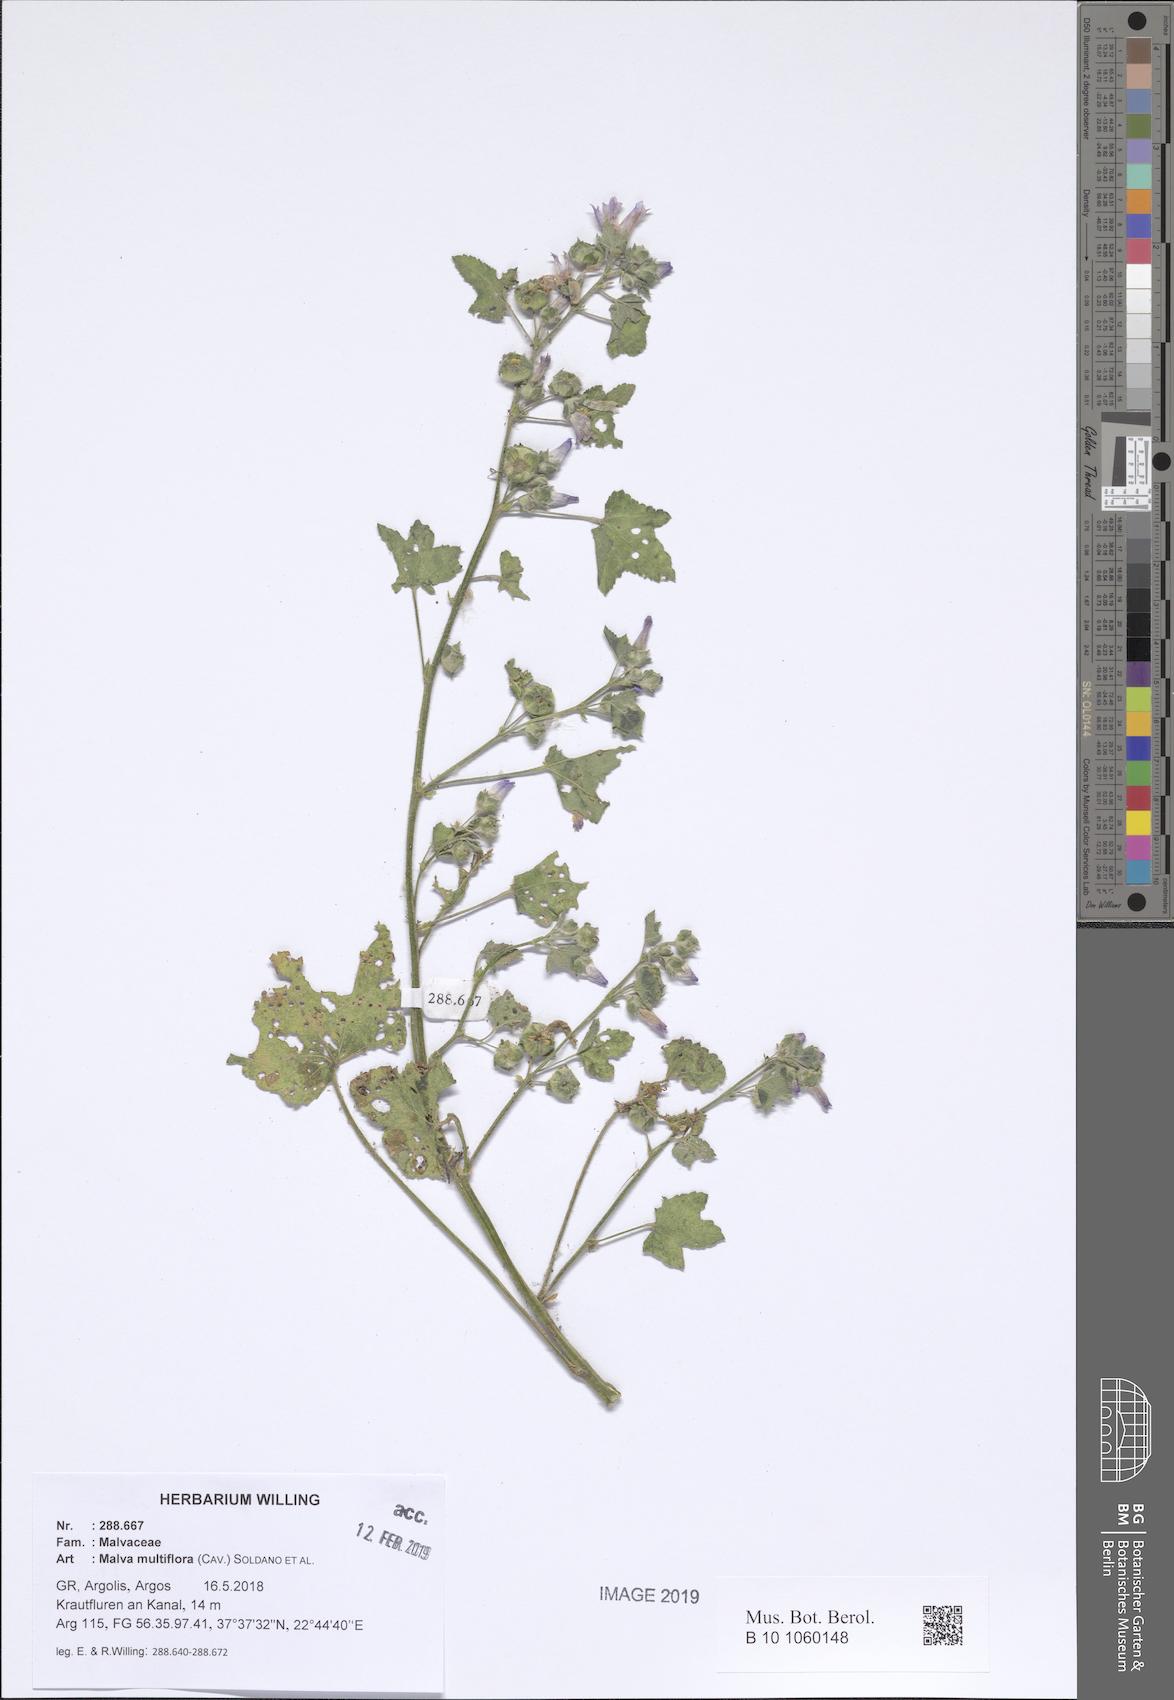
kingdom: Plantae
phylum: Tracheophyta
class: Magnoliopsida
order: Malvales
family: Malvaceae
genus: Malva
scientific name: Malva multiflora
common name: Cheeseweed
